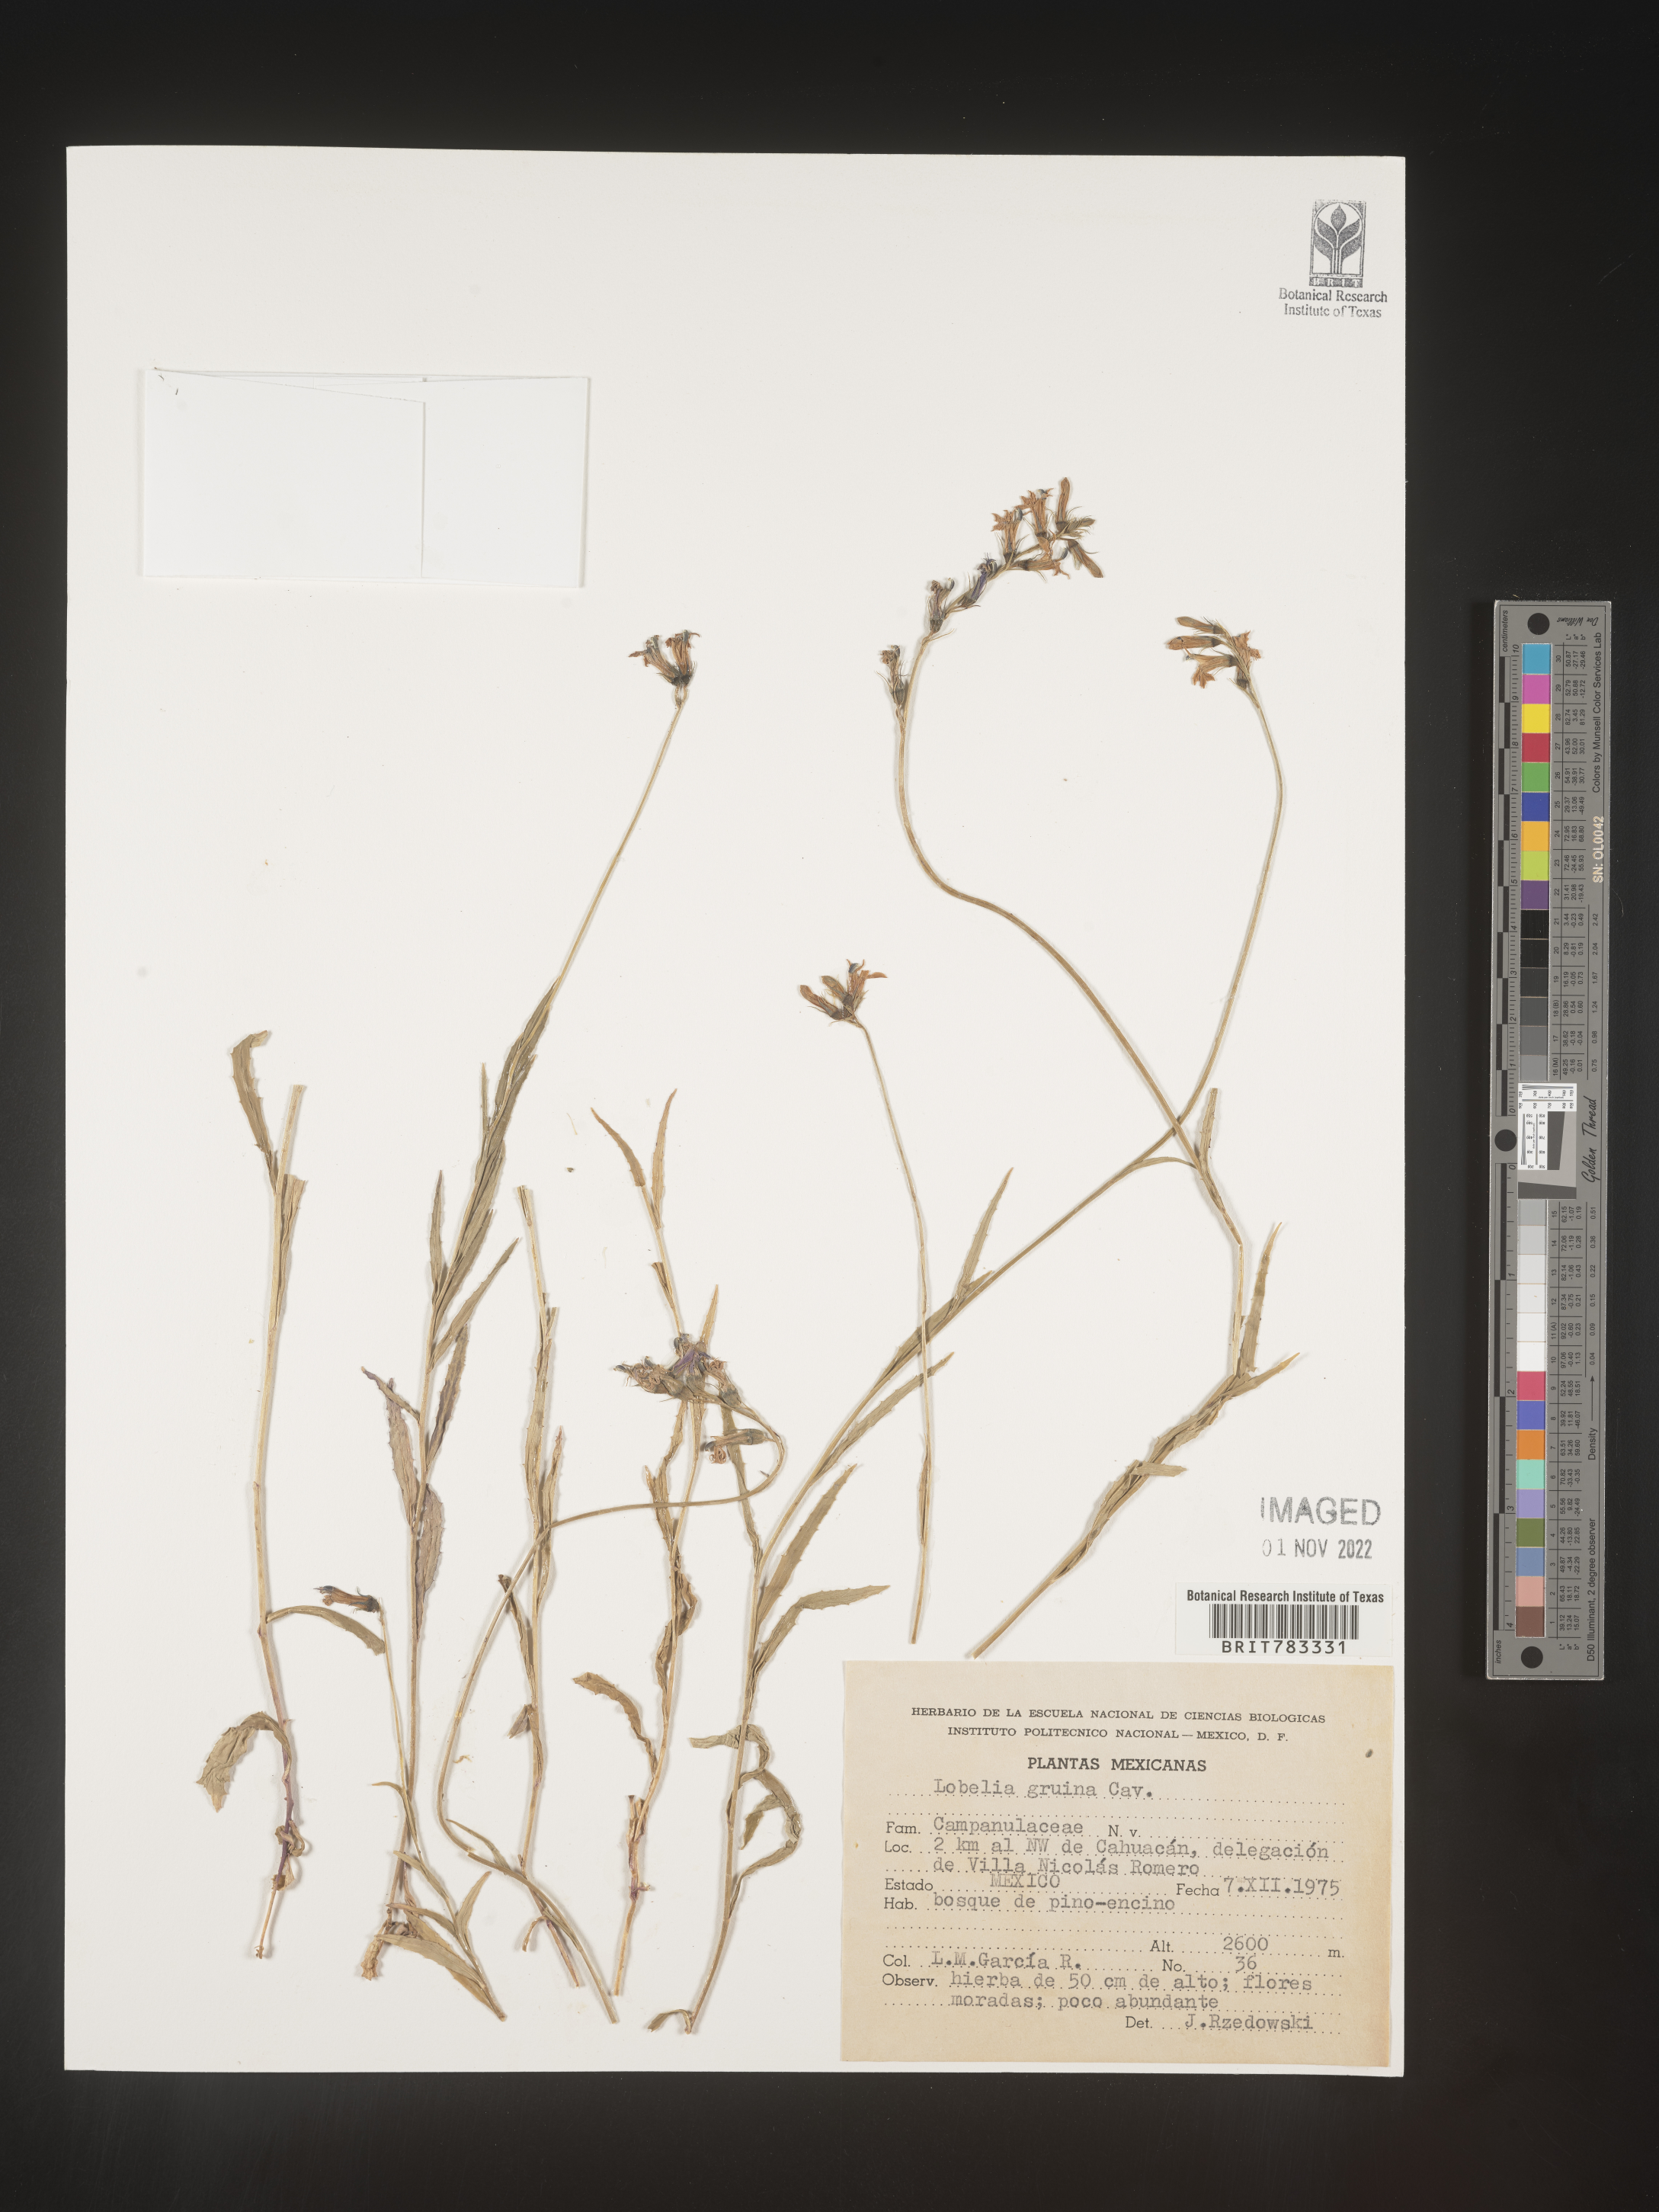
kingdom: Plantae
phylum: Tracheophyta
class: Magnoliopsida
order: Asterales
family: Campanulaceae
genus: Lobelia
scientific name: Lobelia
